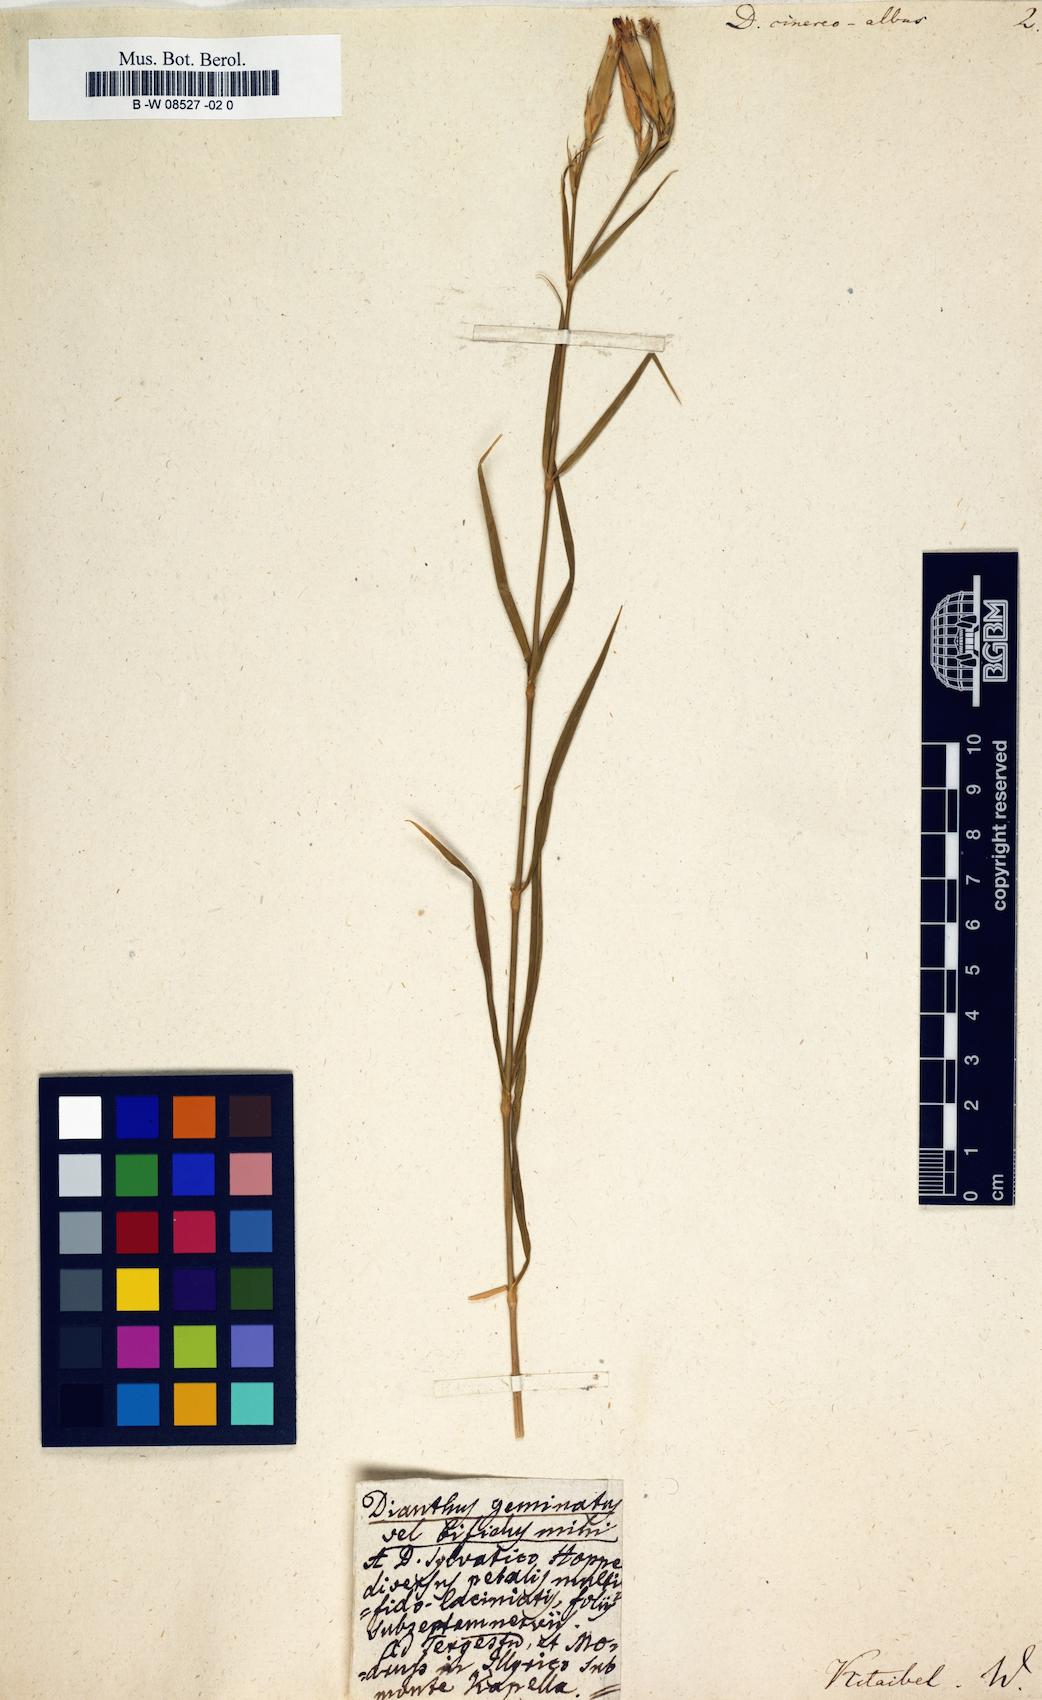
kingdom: Plantae
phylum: Tracheophyta
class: Magnoliopsida
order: Caryophyllales
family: Caryophyllaceae
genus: Dianthus
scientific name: Dianthus
